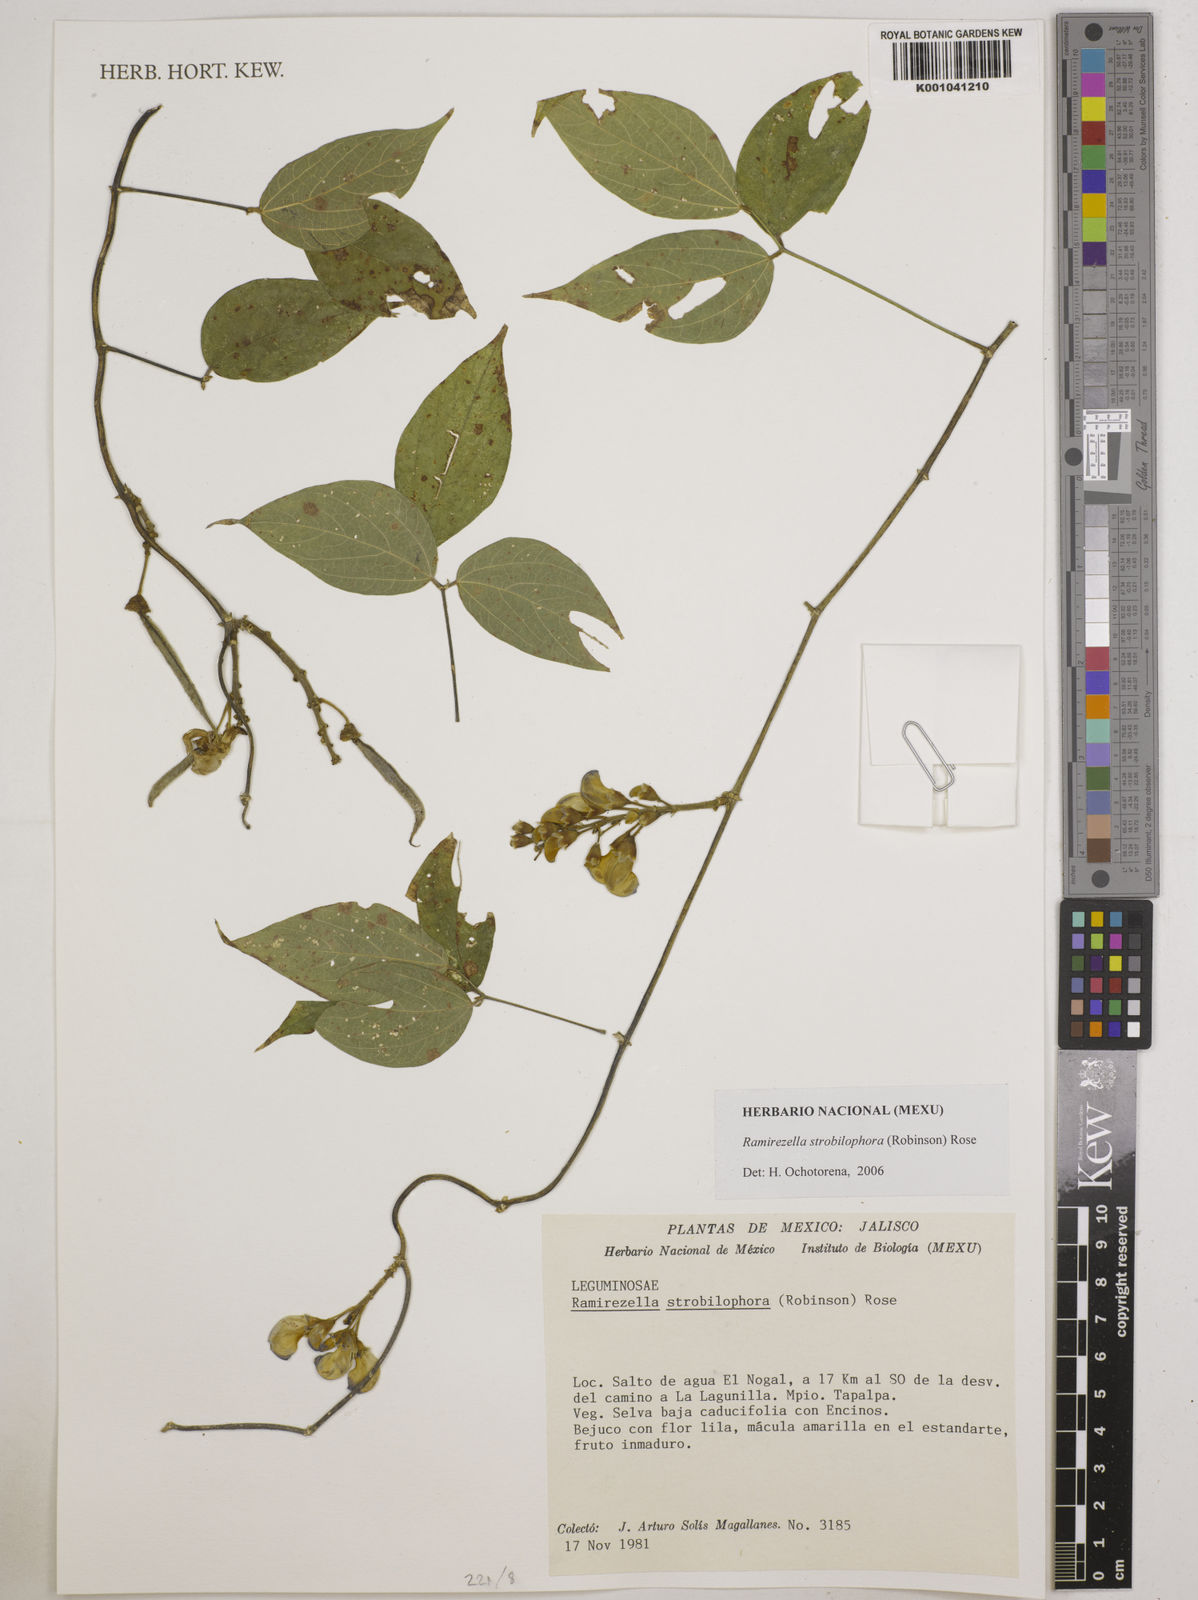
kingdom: Plantae
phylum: Tracheophyta
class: Magnoliopsida
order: Fabales
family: Fabaceae
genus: Ramirezella
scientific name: Ramirezella strobilophora
